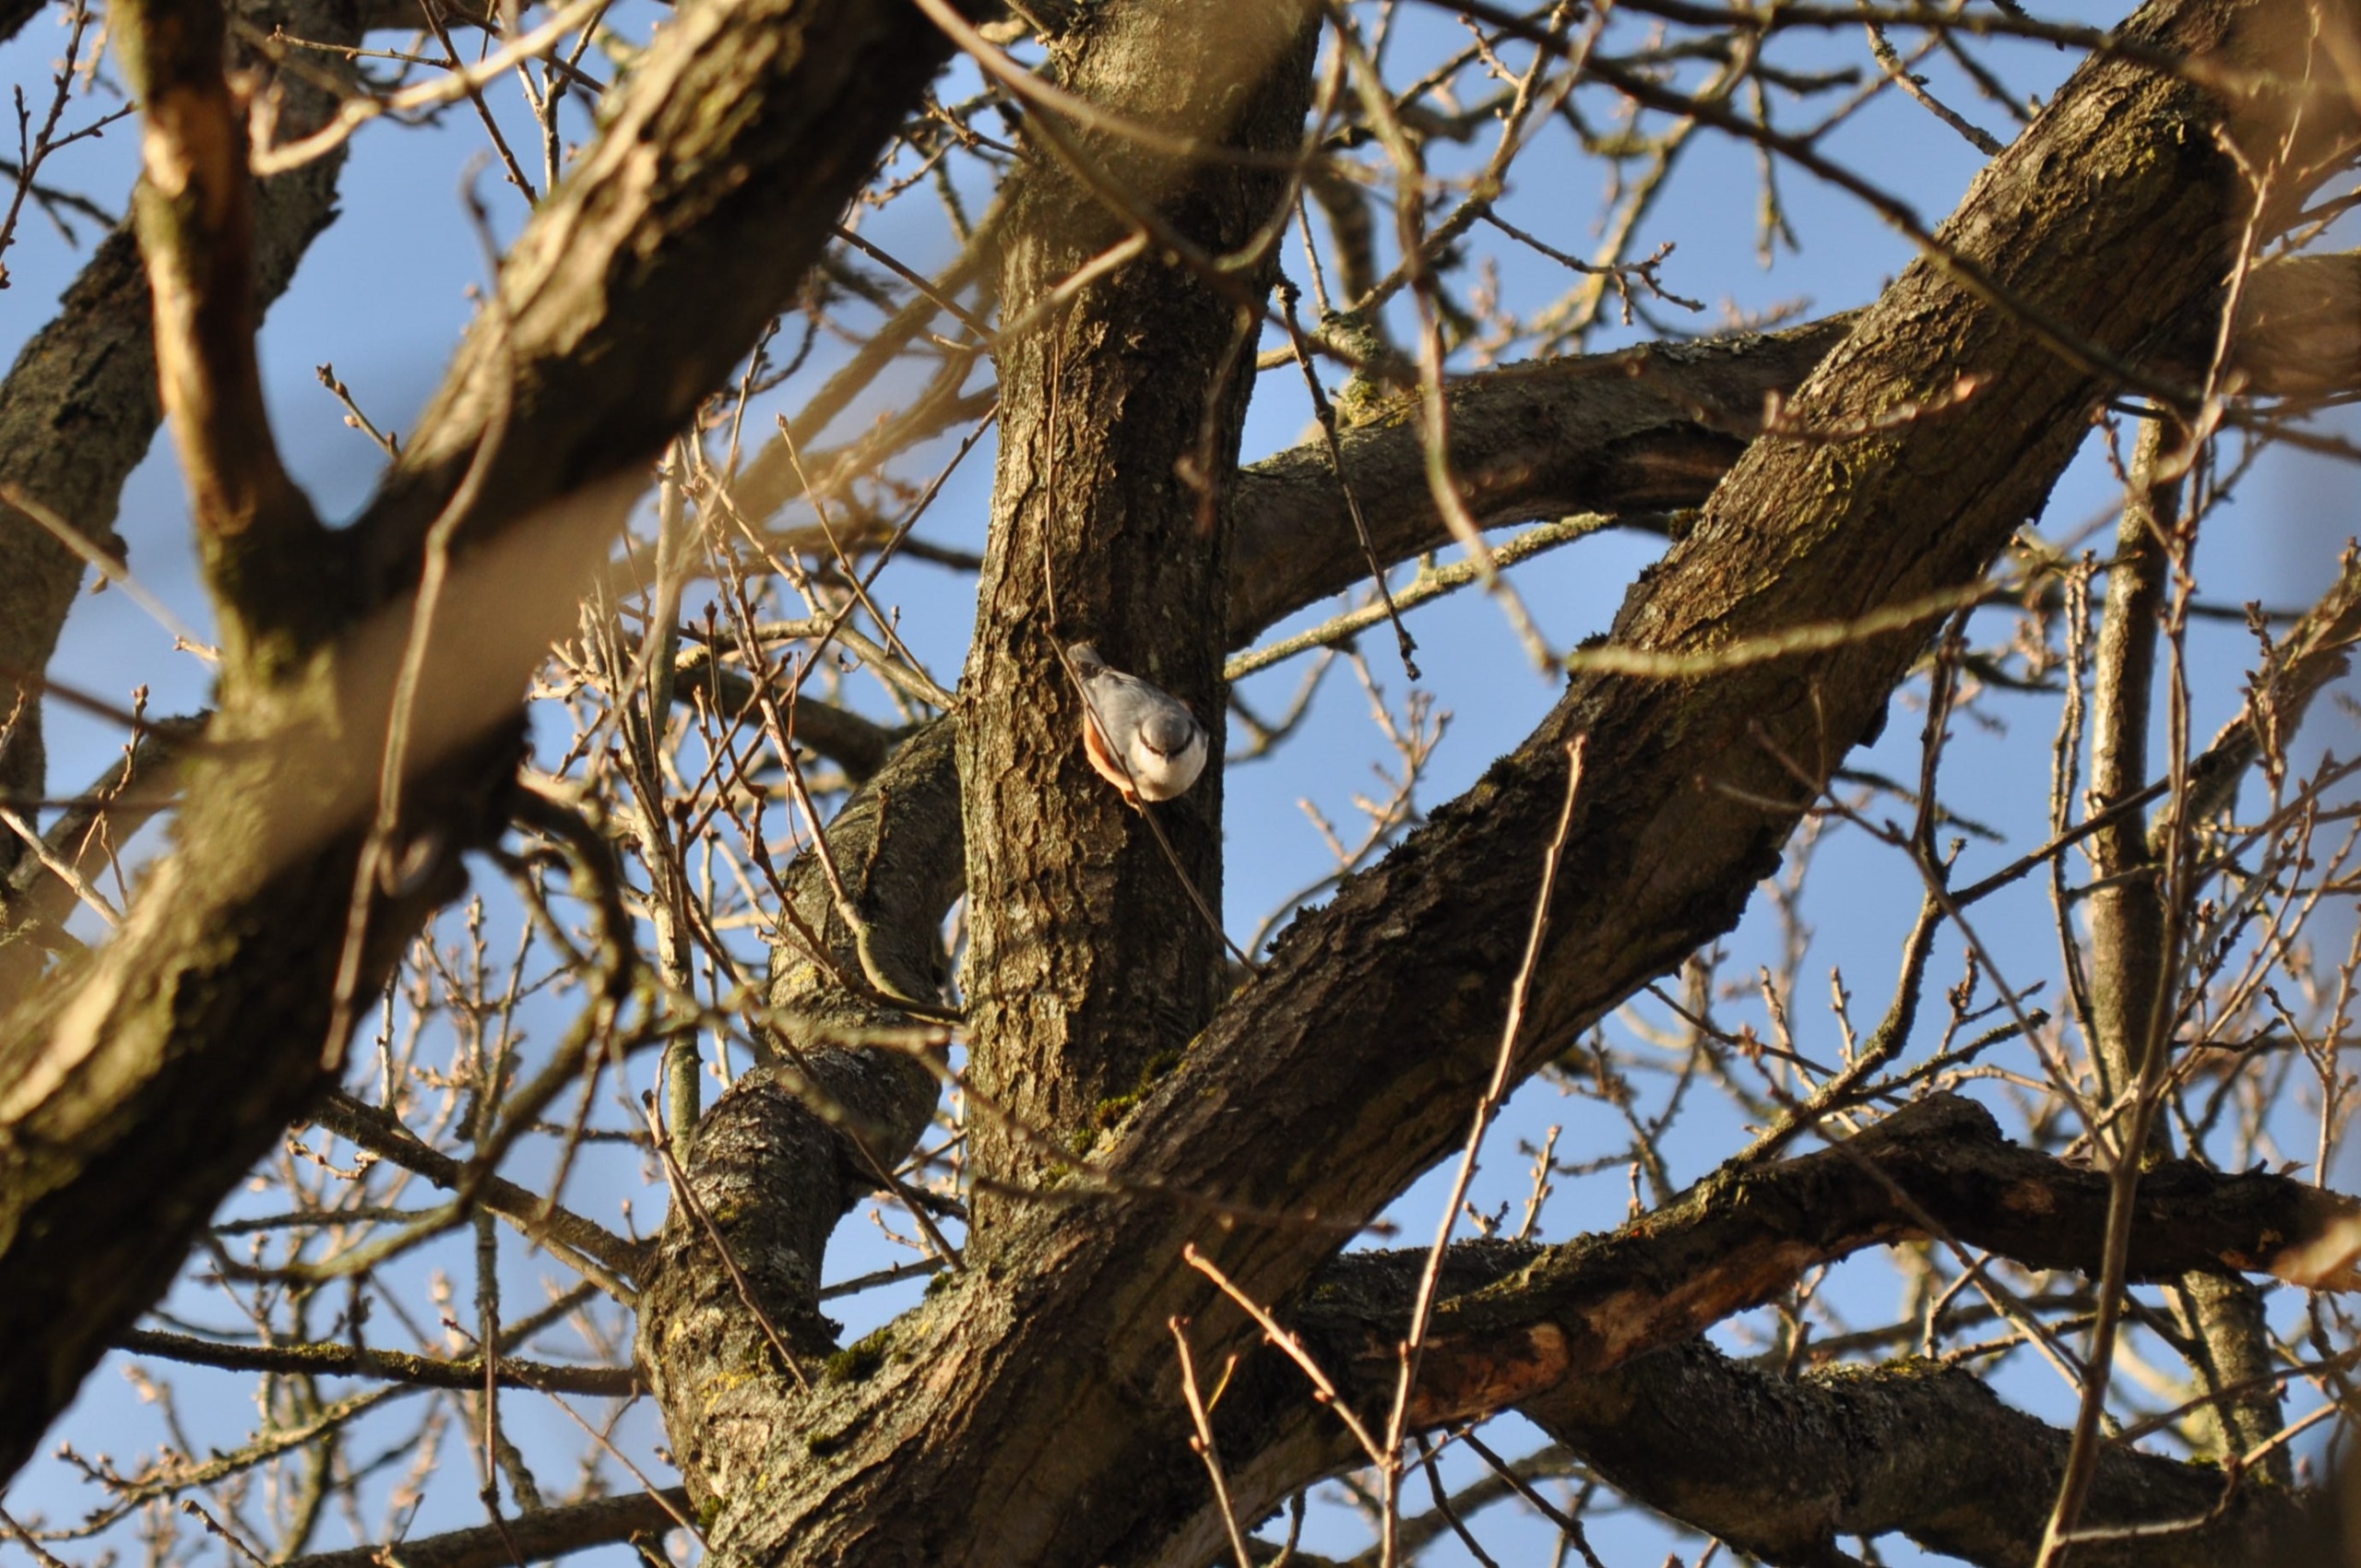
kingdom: Animalia
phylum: Chordata
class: Aves
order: Passeriformes
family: Sittidae
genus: Sitta
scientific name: Sitta europaea
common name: Spætmejse
